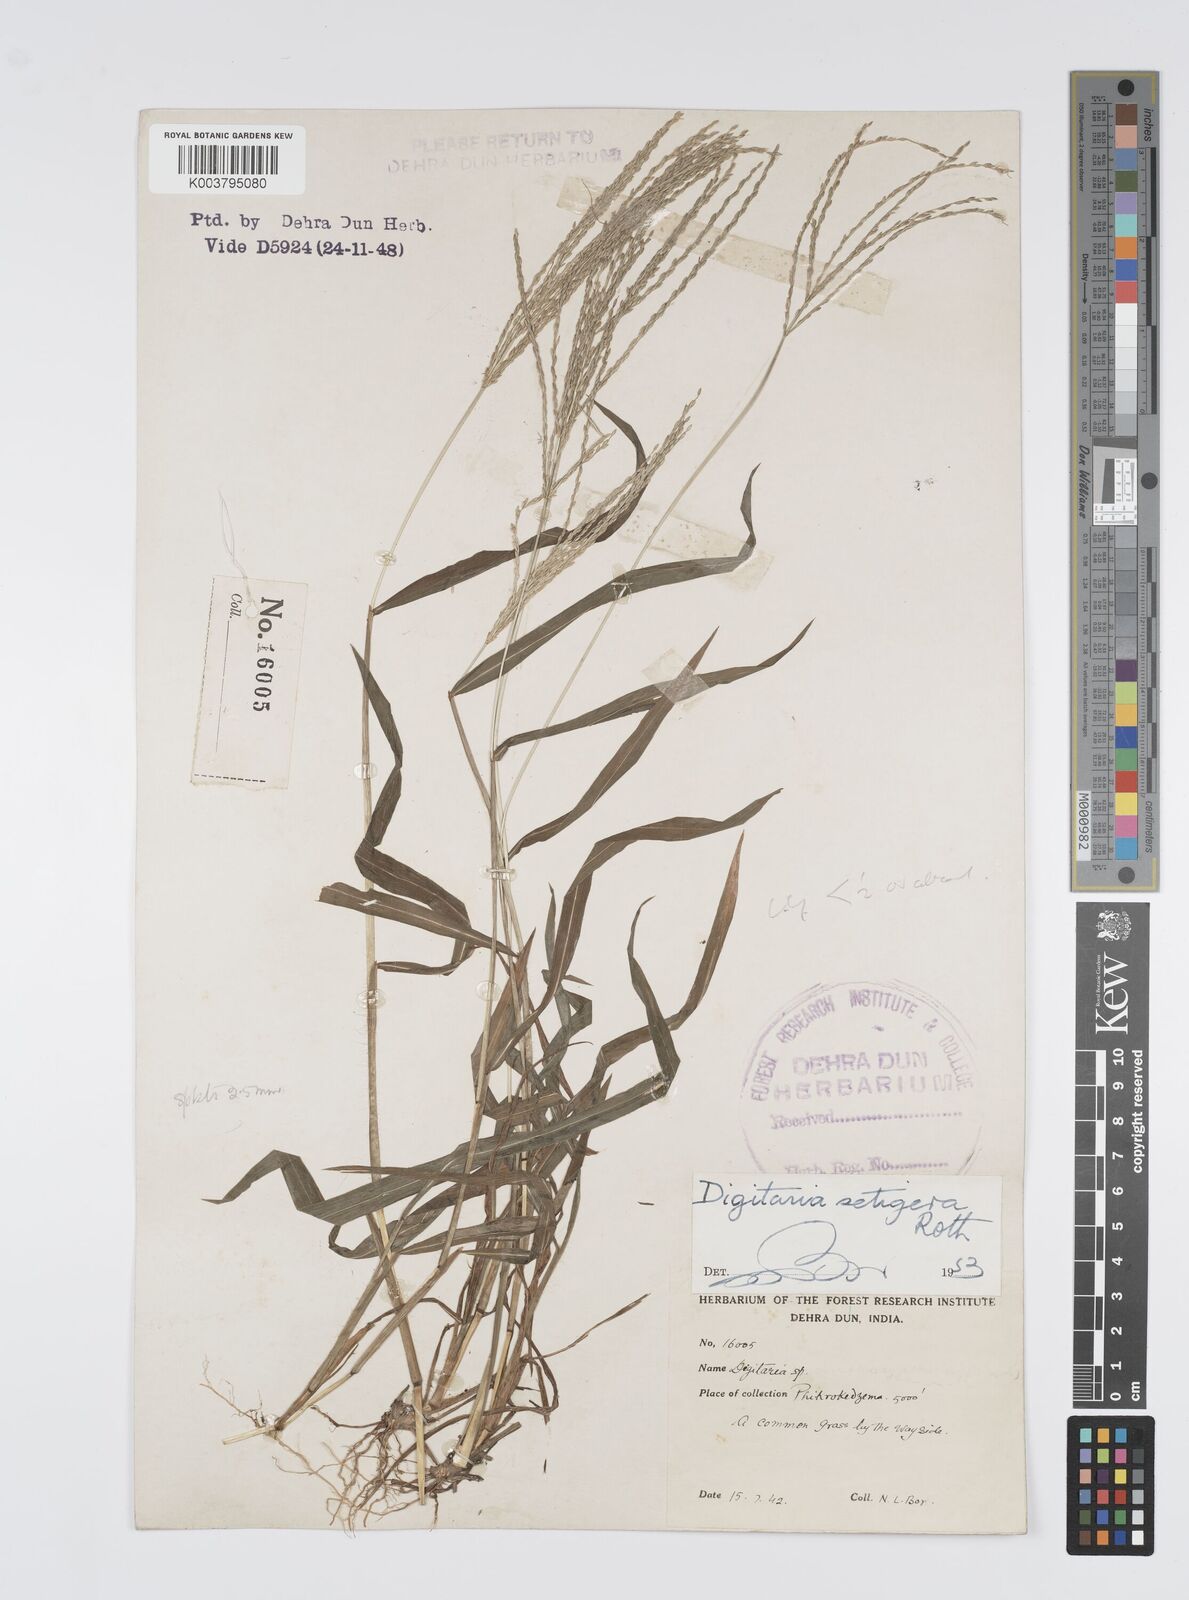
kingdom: Plantae
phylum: Tracheophyta
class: Liliopsida
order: Poales
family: Poaceae
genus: Digitaria
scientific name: Digitaria setigera
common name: East indian crabgrass
